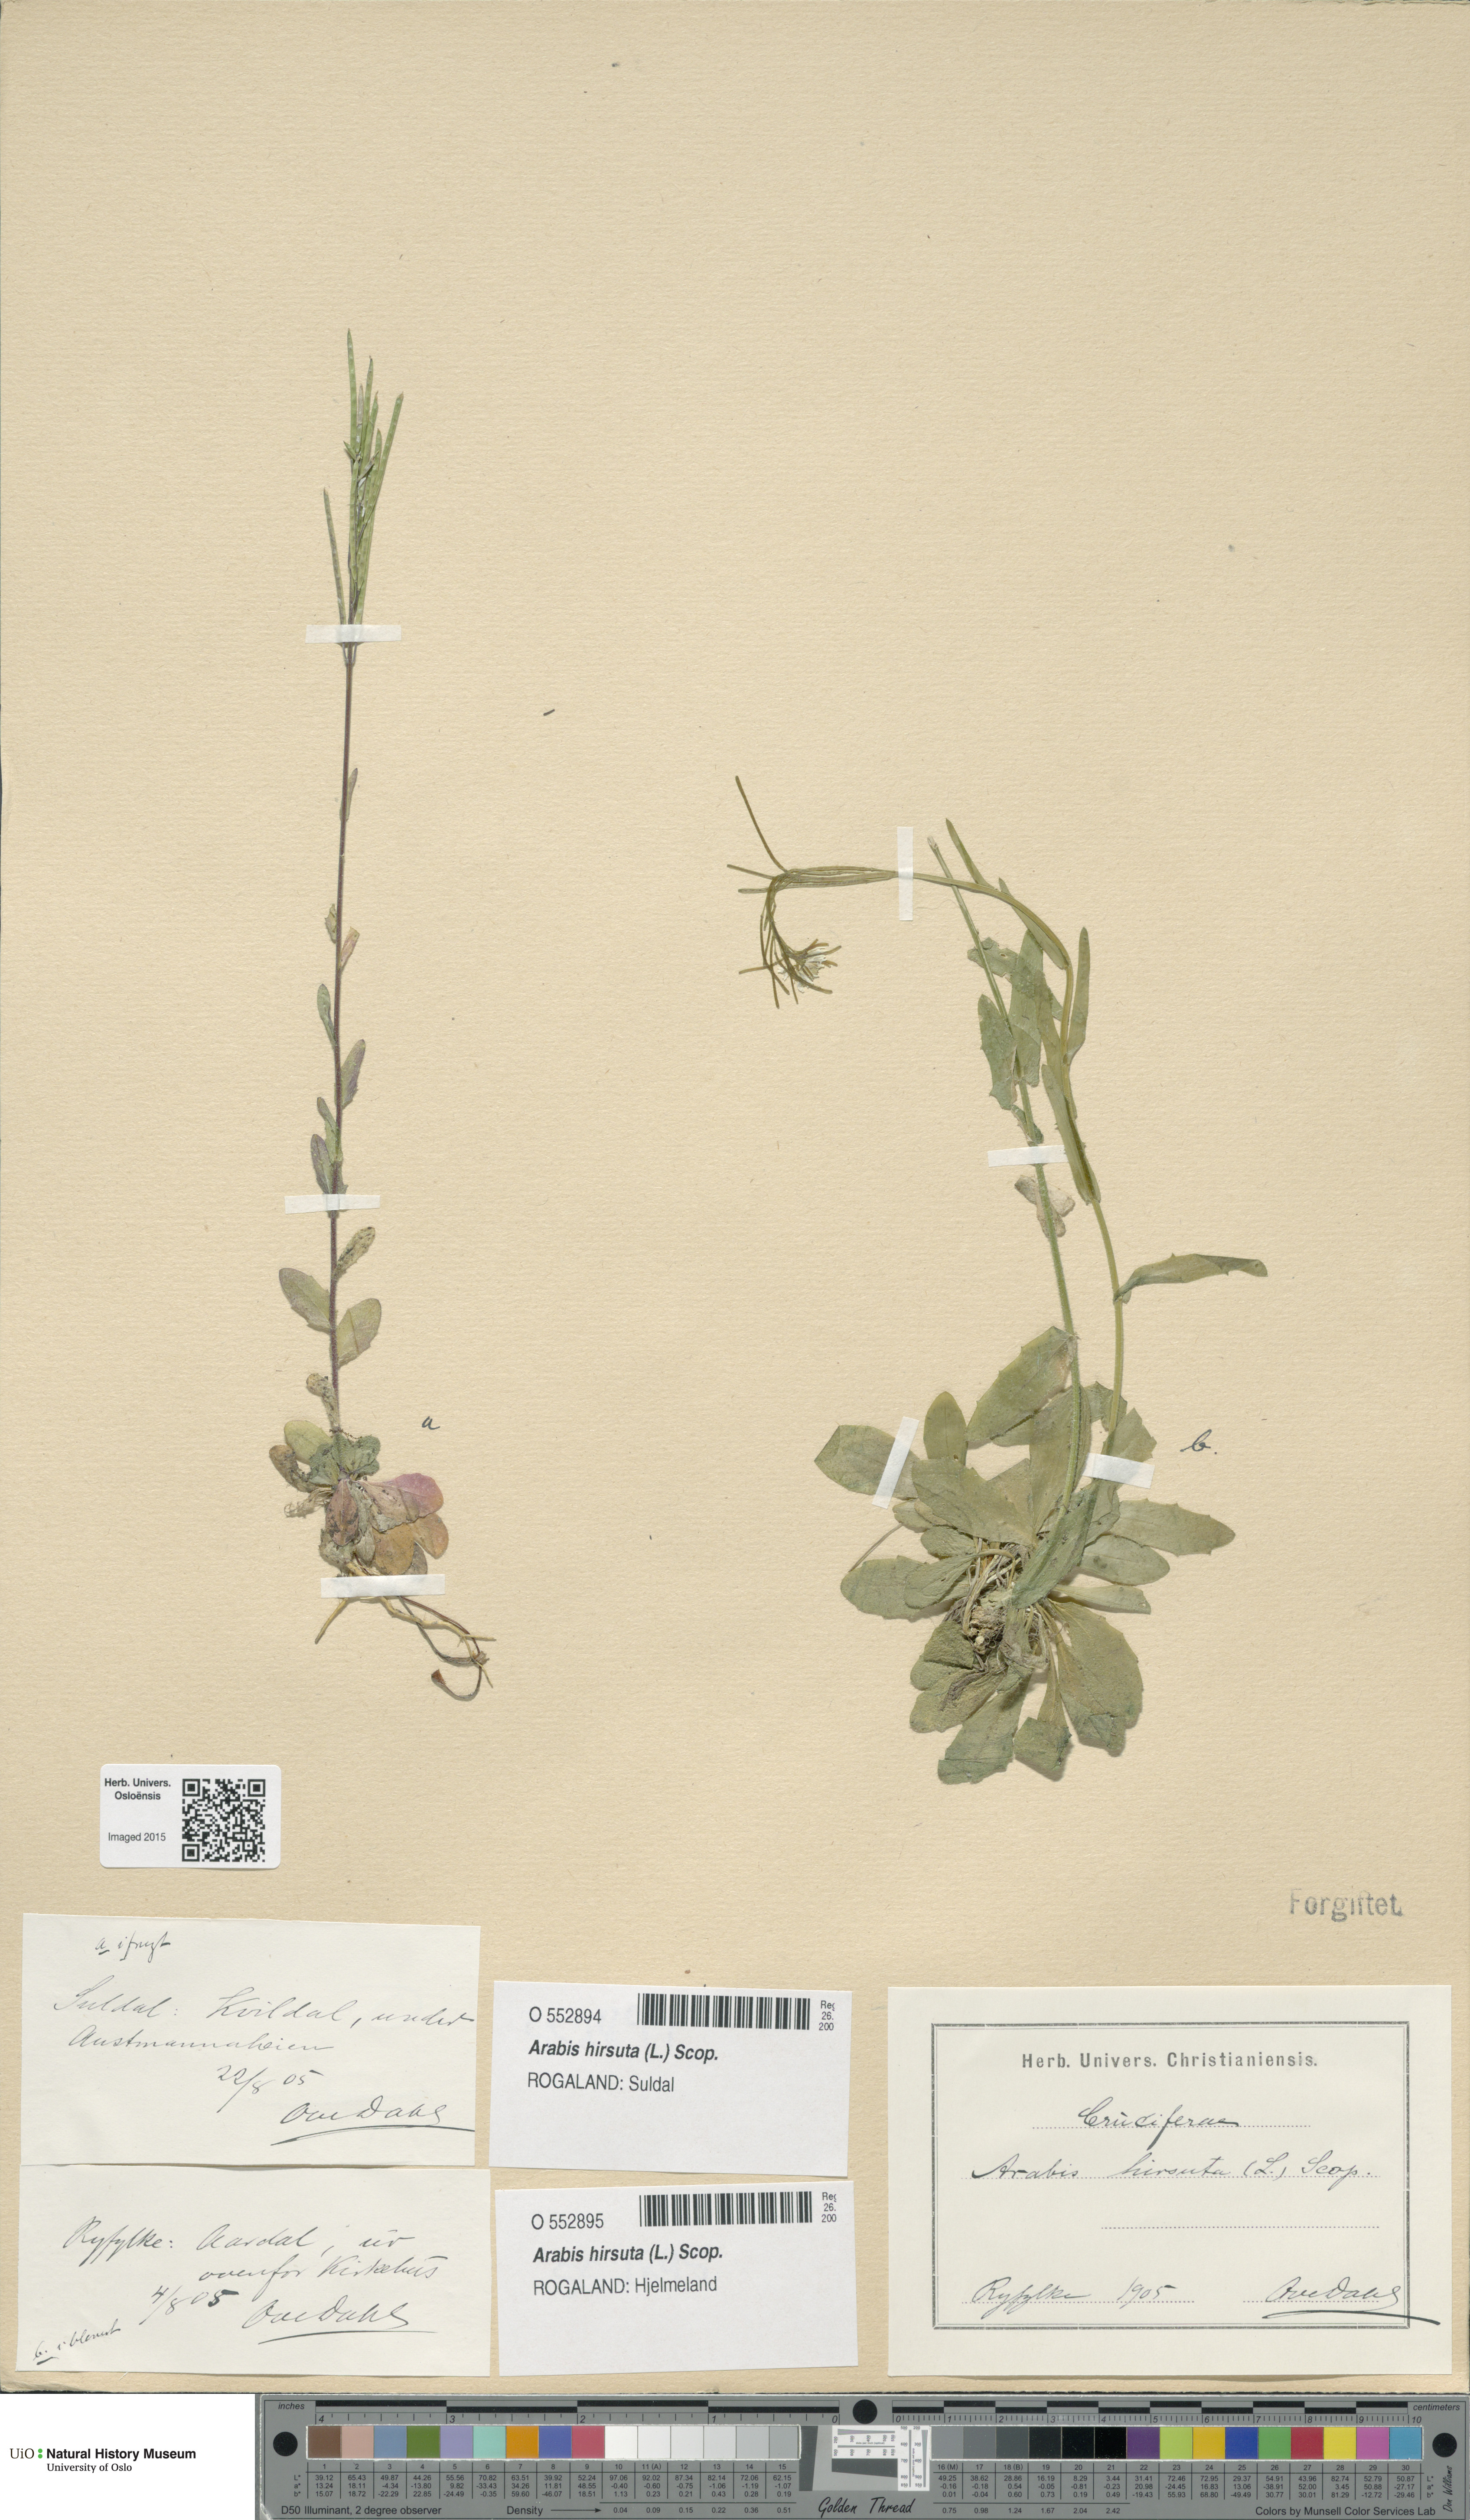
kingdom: Plantae
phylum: Tracheophyta
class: Magnoliopsida
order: Brassicales
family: Brassicaceae
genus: Arabis
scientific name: Arabis hirsuta
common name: Hairy rock-cress
